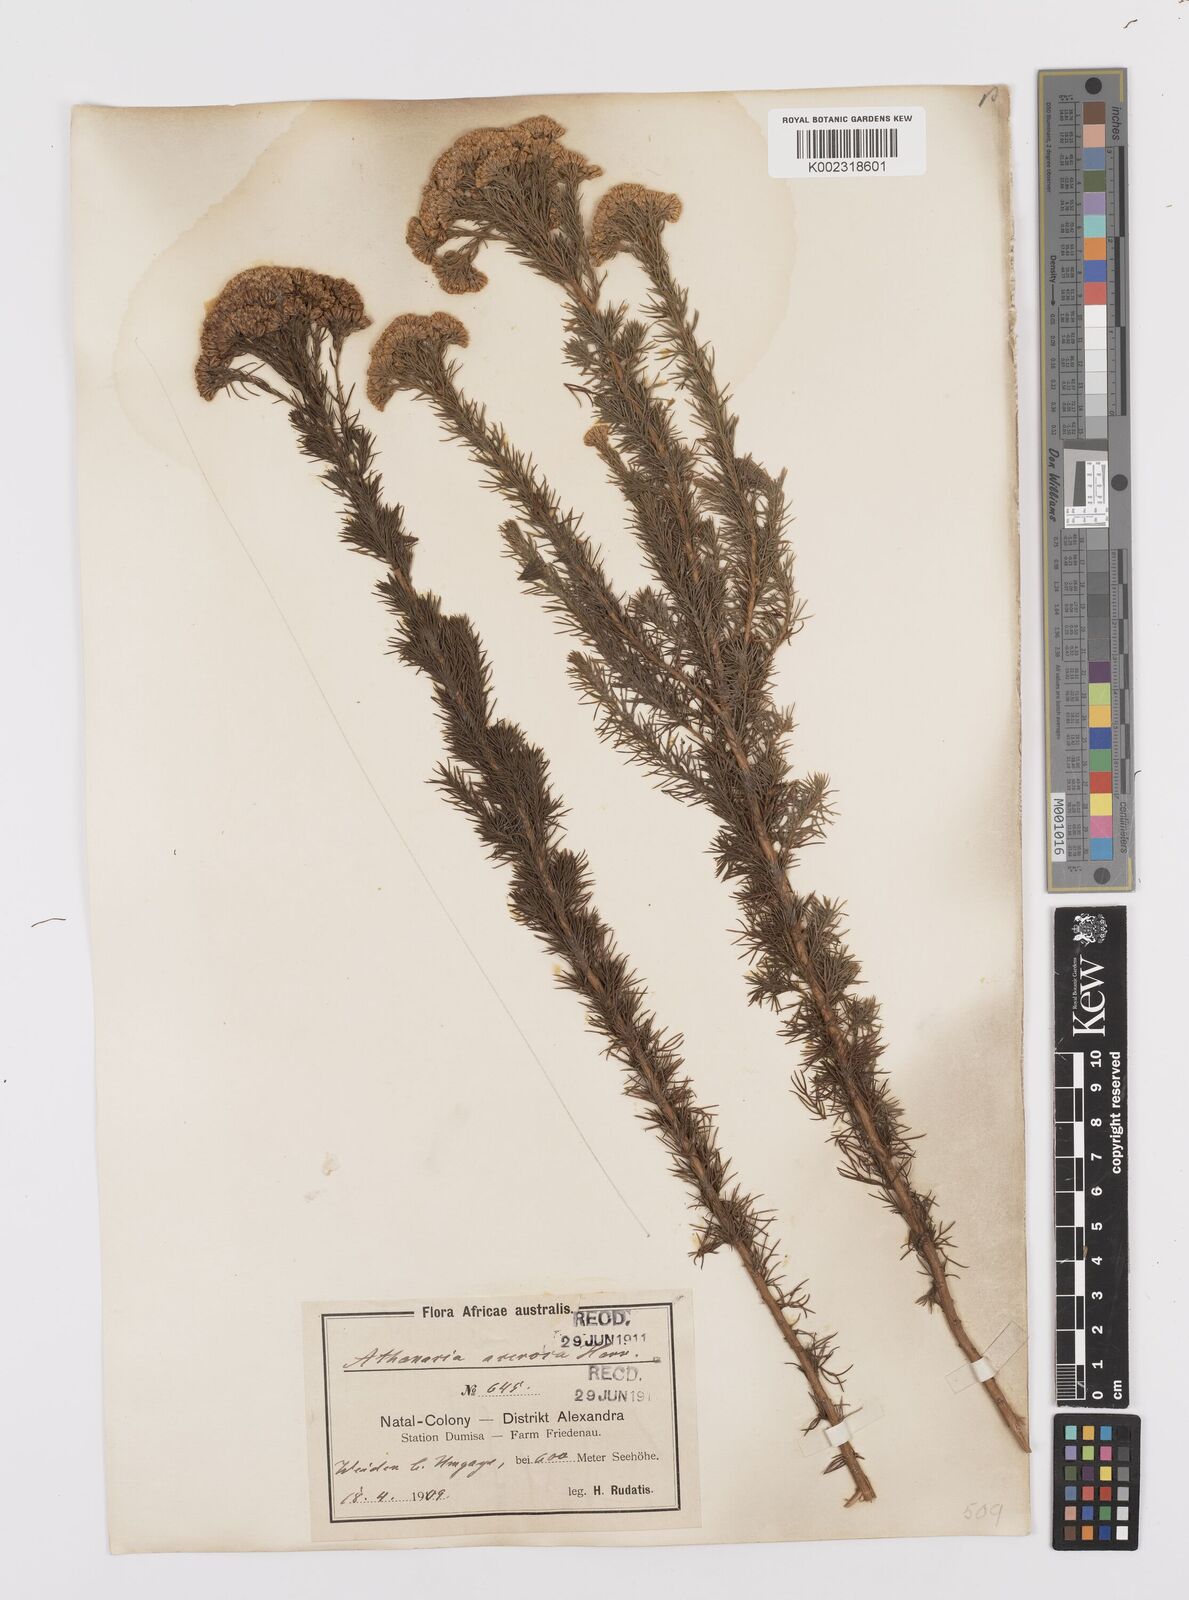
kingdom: Plantae
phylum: Tracheophyta
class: Magnoliopsida
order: Asterales
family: Asteraceae
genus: Phymaspermum
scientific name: Phymaspermum acerosum
